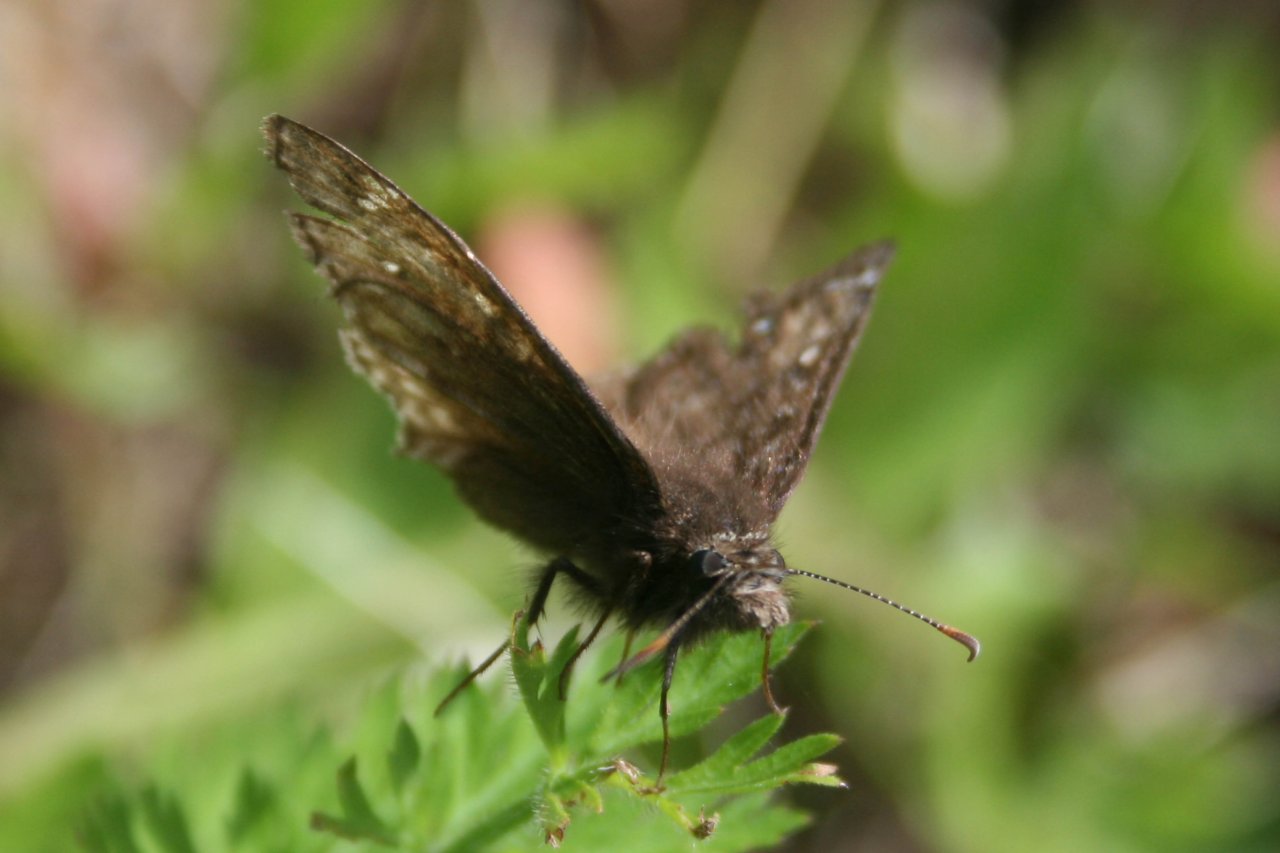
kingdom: Animalia
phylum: Arthropoda
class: Insecta
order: Lepidoptera
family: Hesperiidae
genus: Gesta
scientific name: Gesta
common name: Juvenal's Duskywing
